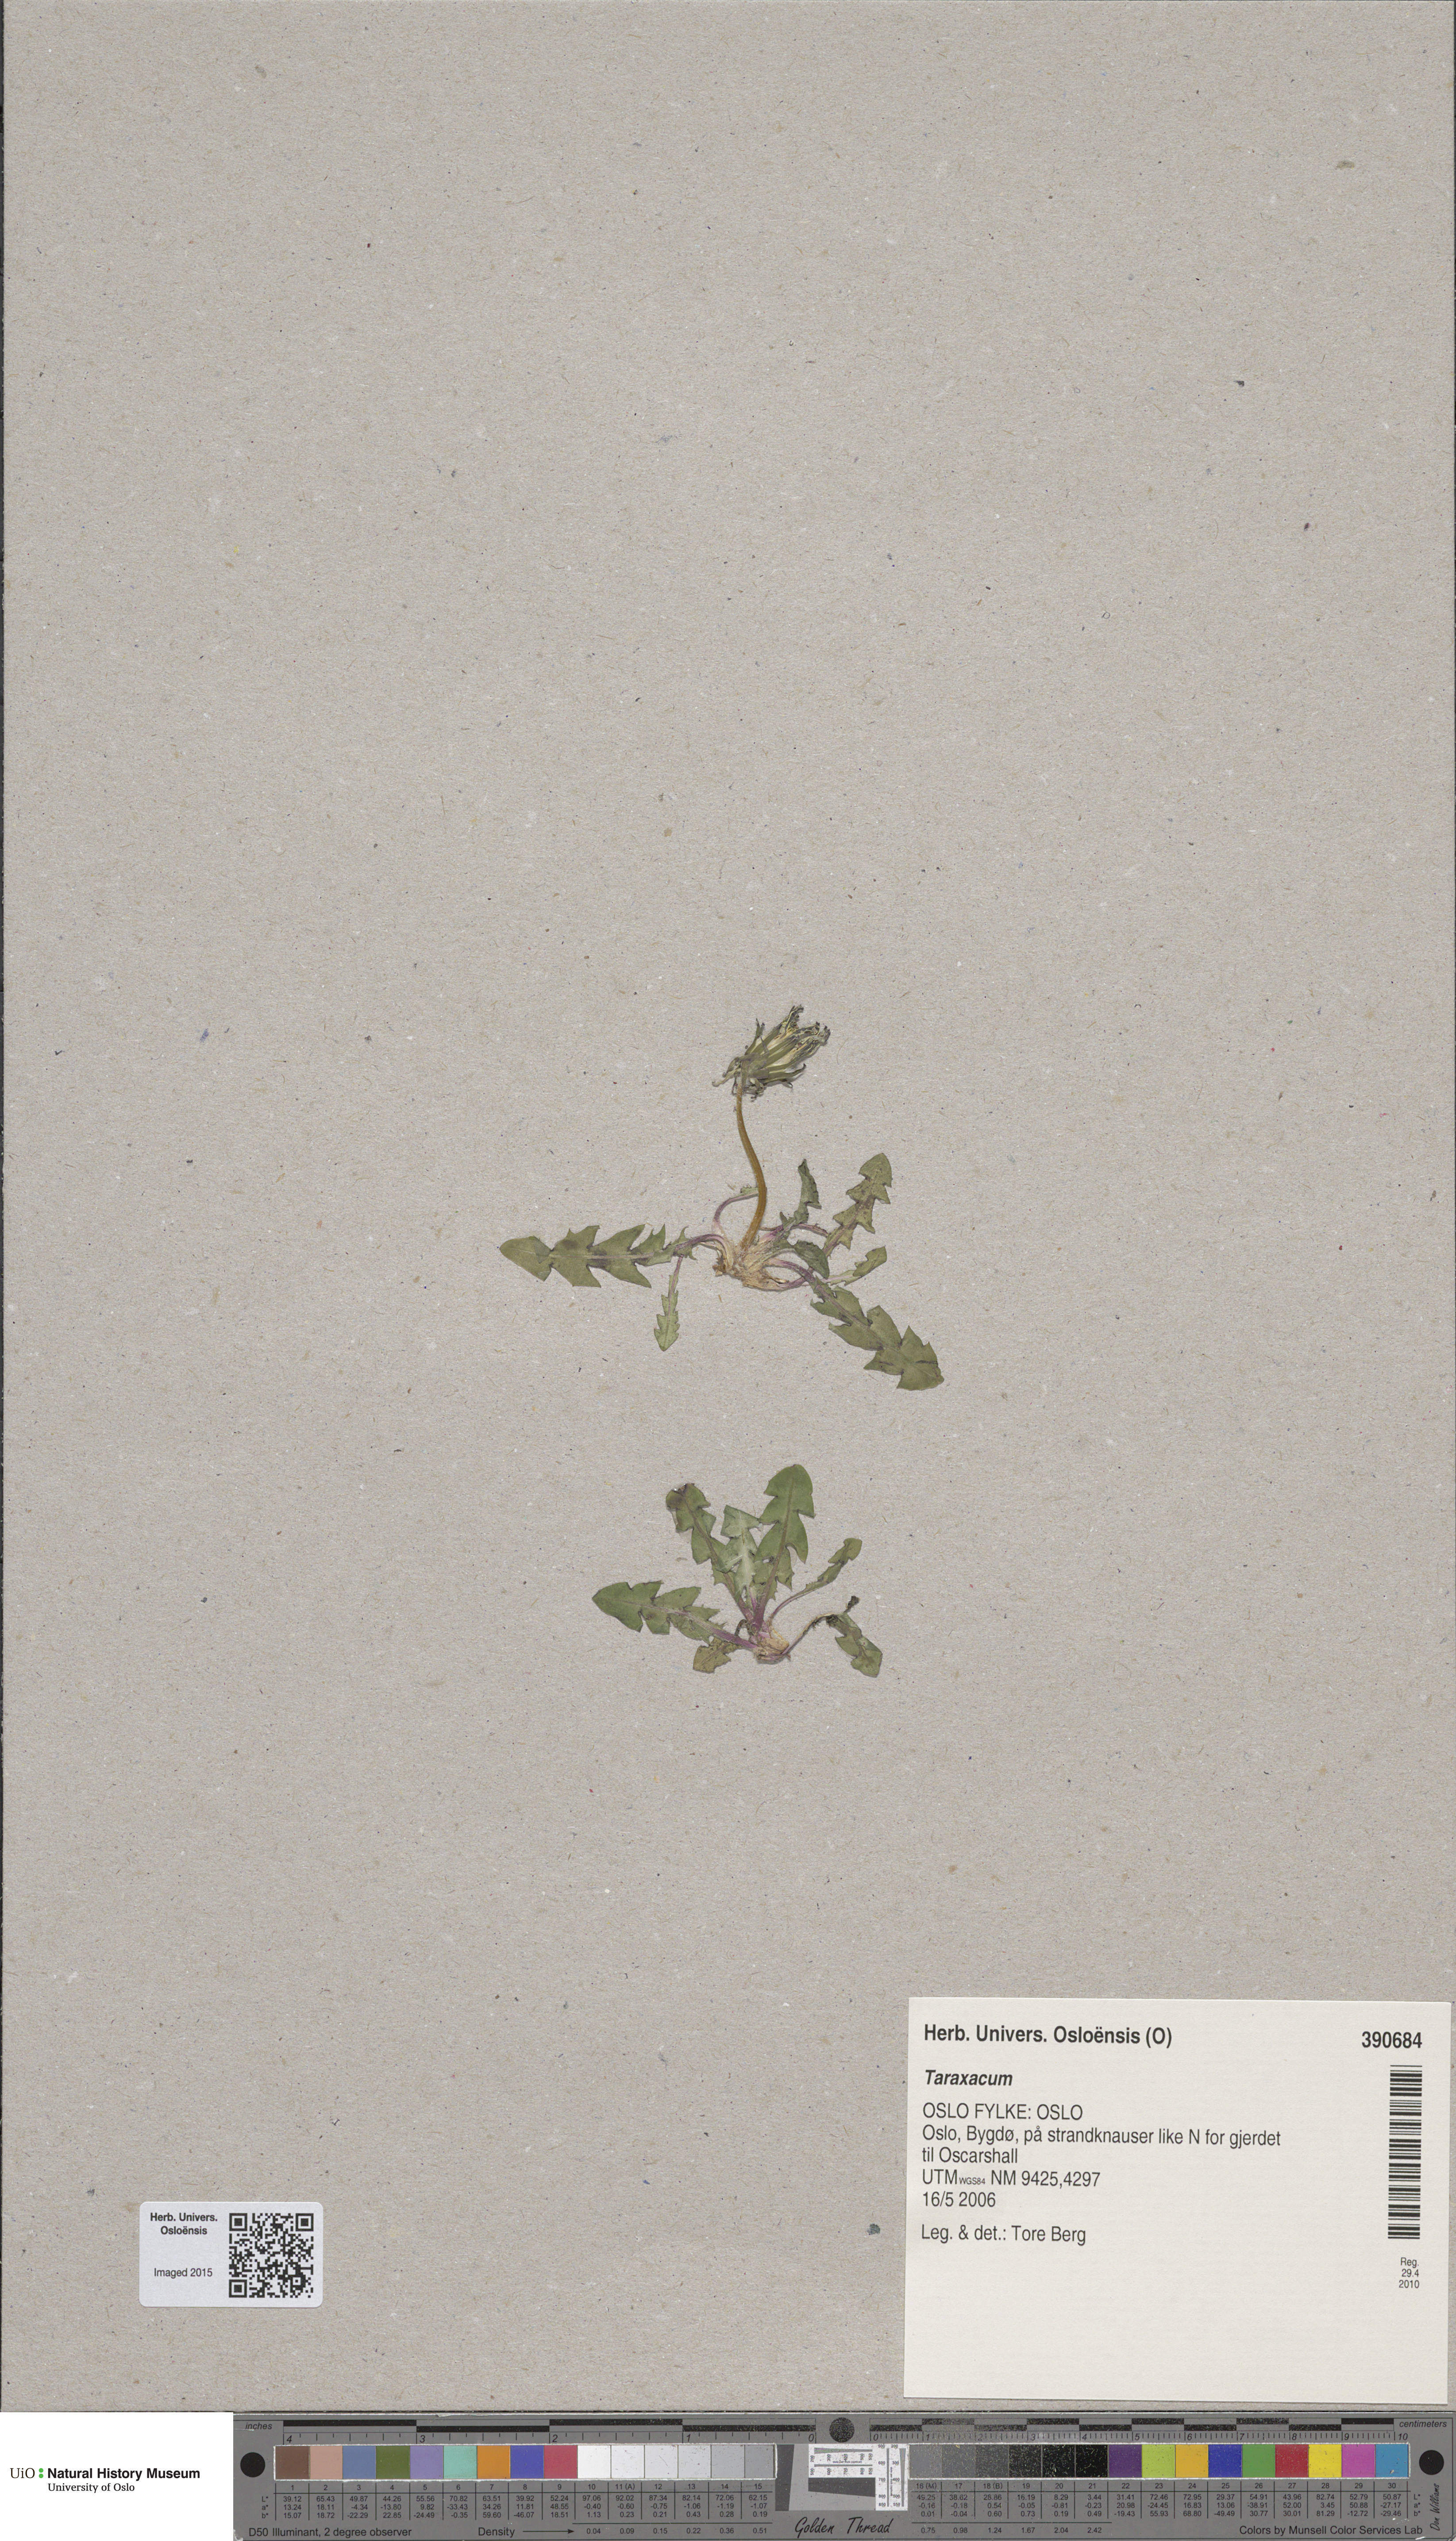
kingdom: Plantae
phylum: Tracheophyta
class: Magnoliopsida
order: Asterales
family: Asteraceae
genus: Taraxacum
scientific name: Taraxacum
